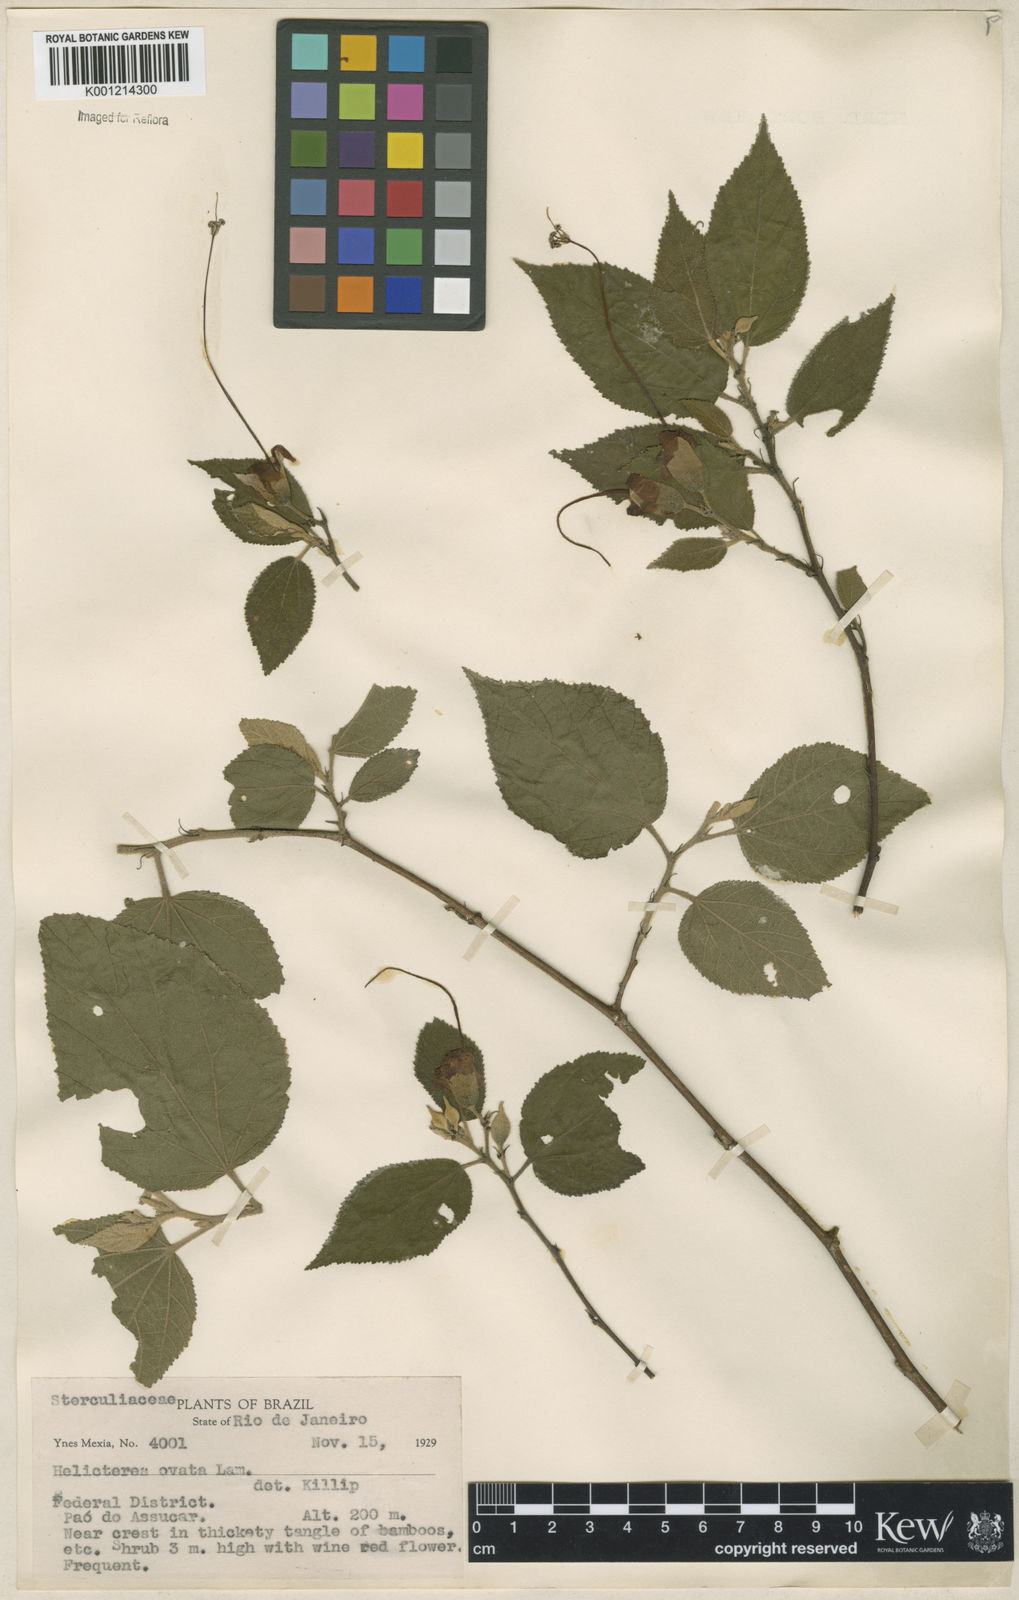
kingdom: Plantae
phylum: Tracheophyta
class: Magnoliopsida
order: Malvales
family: Malvaceae
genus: Helicteres
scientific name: Helicteres ovata
